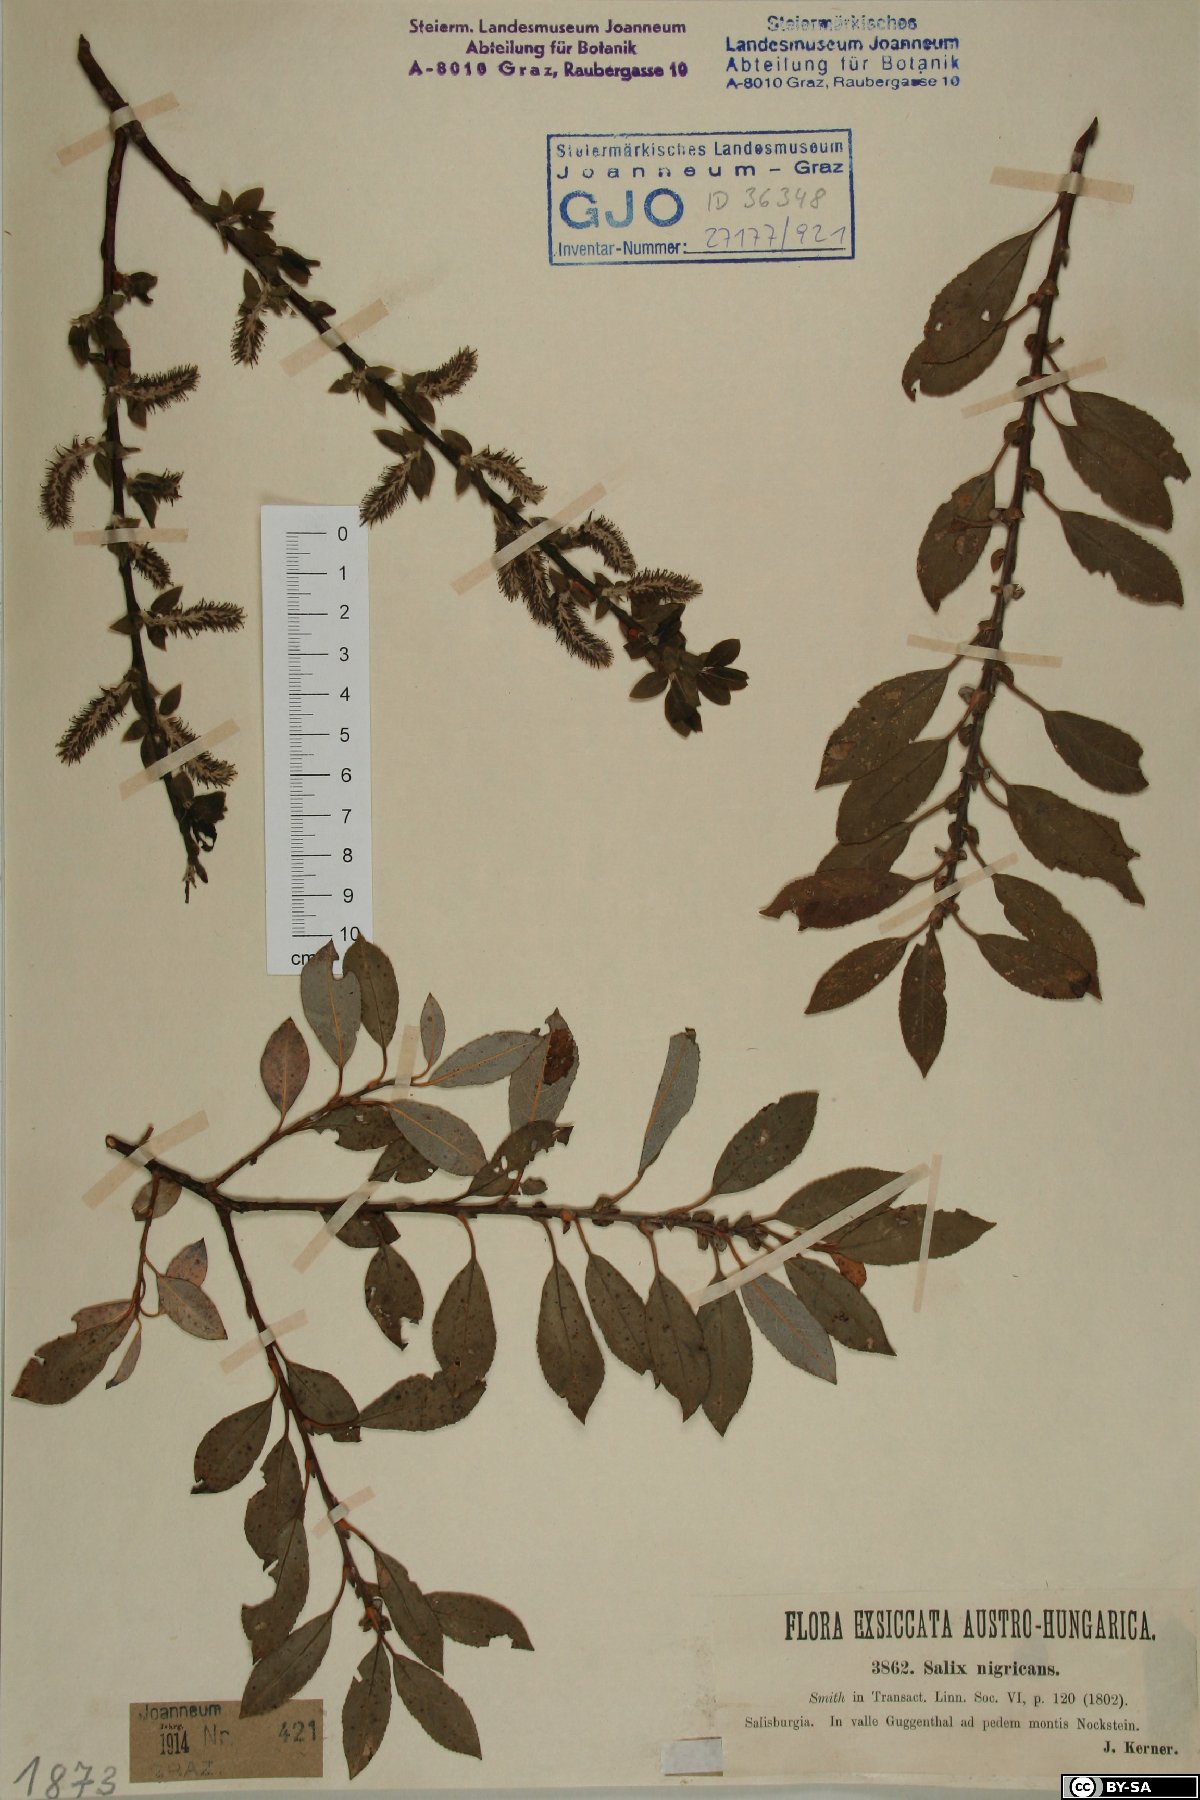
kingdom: Plantae
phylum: Tracheophyta
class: Magnoliopsida
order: Malpighiales
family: Salicaceae
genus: Salix
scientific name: Salix myrsinifolia
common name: Dark-leaved willow
